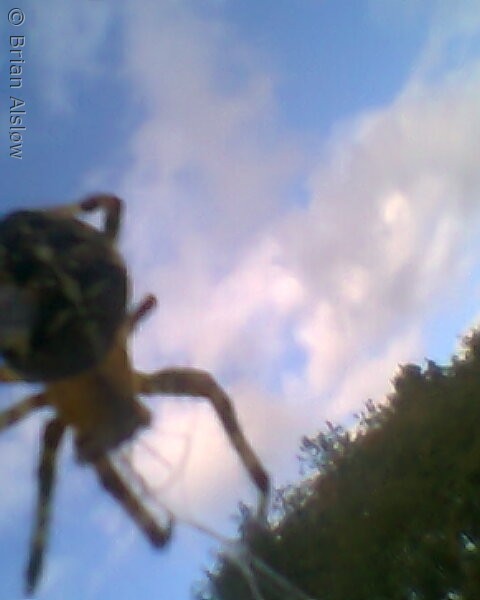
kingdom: Animalia
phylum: Arthropoda
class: Arachnida
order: Araneae
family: Araneidae
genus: Araneus
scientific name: Araneus diadematus
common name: Korsedderkop
